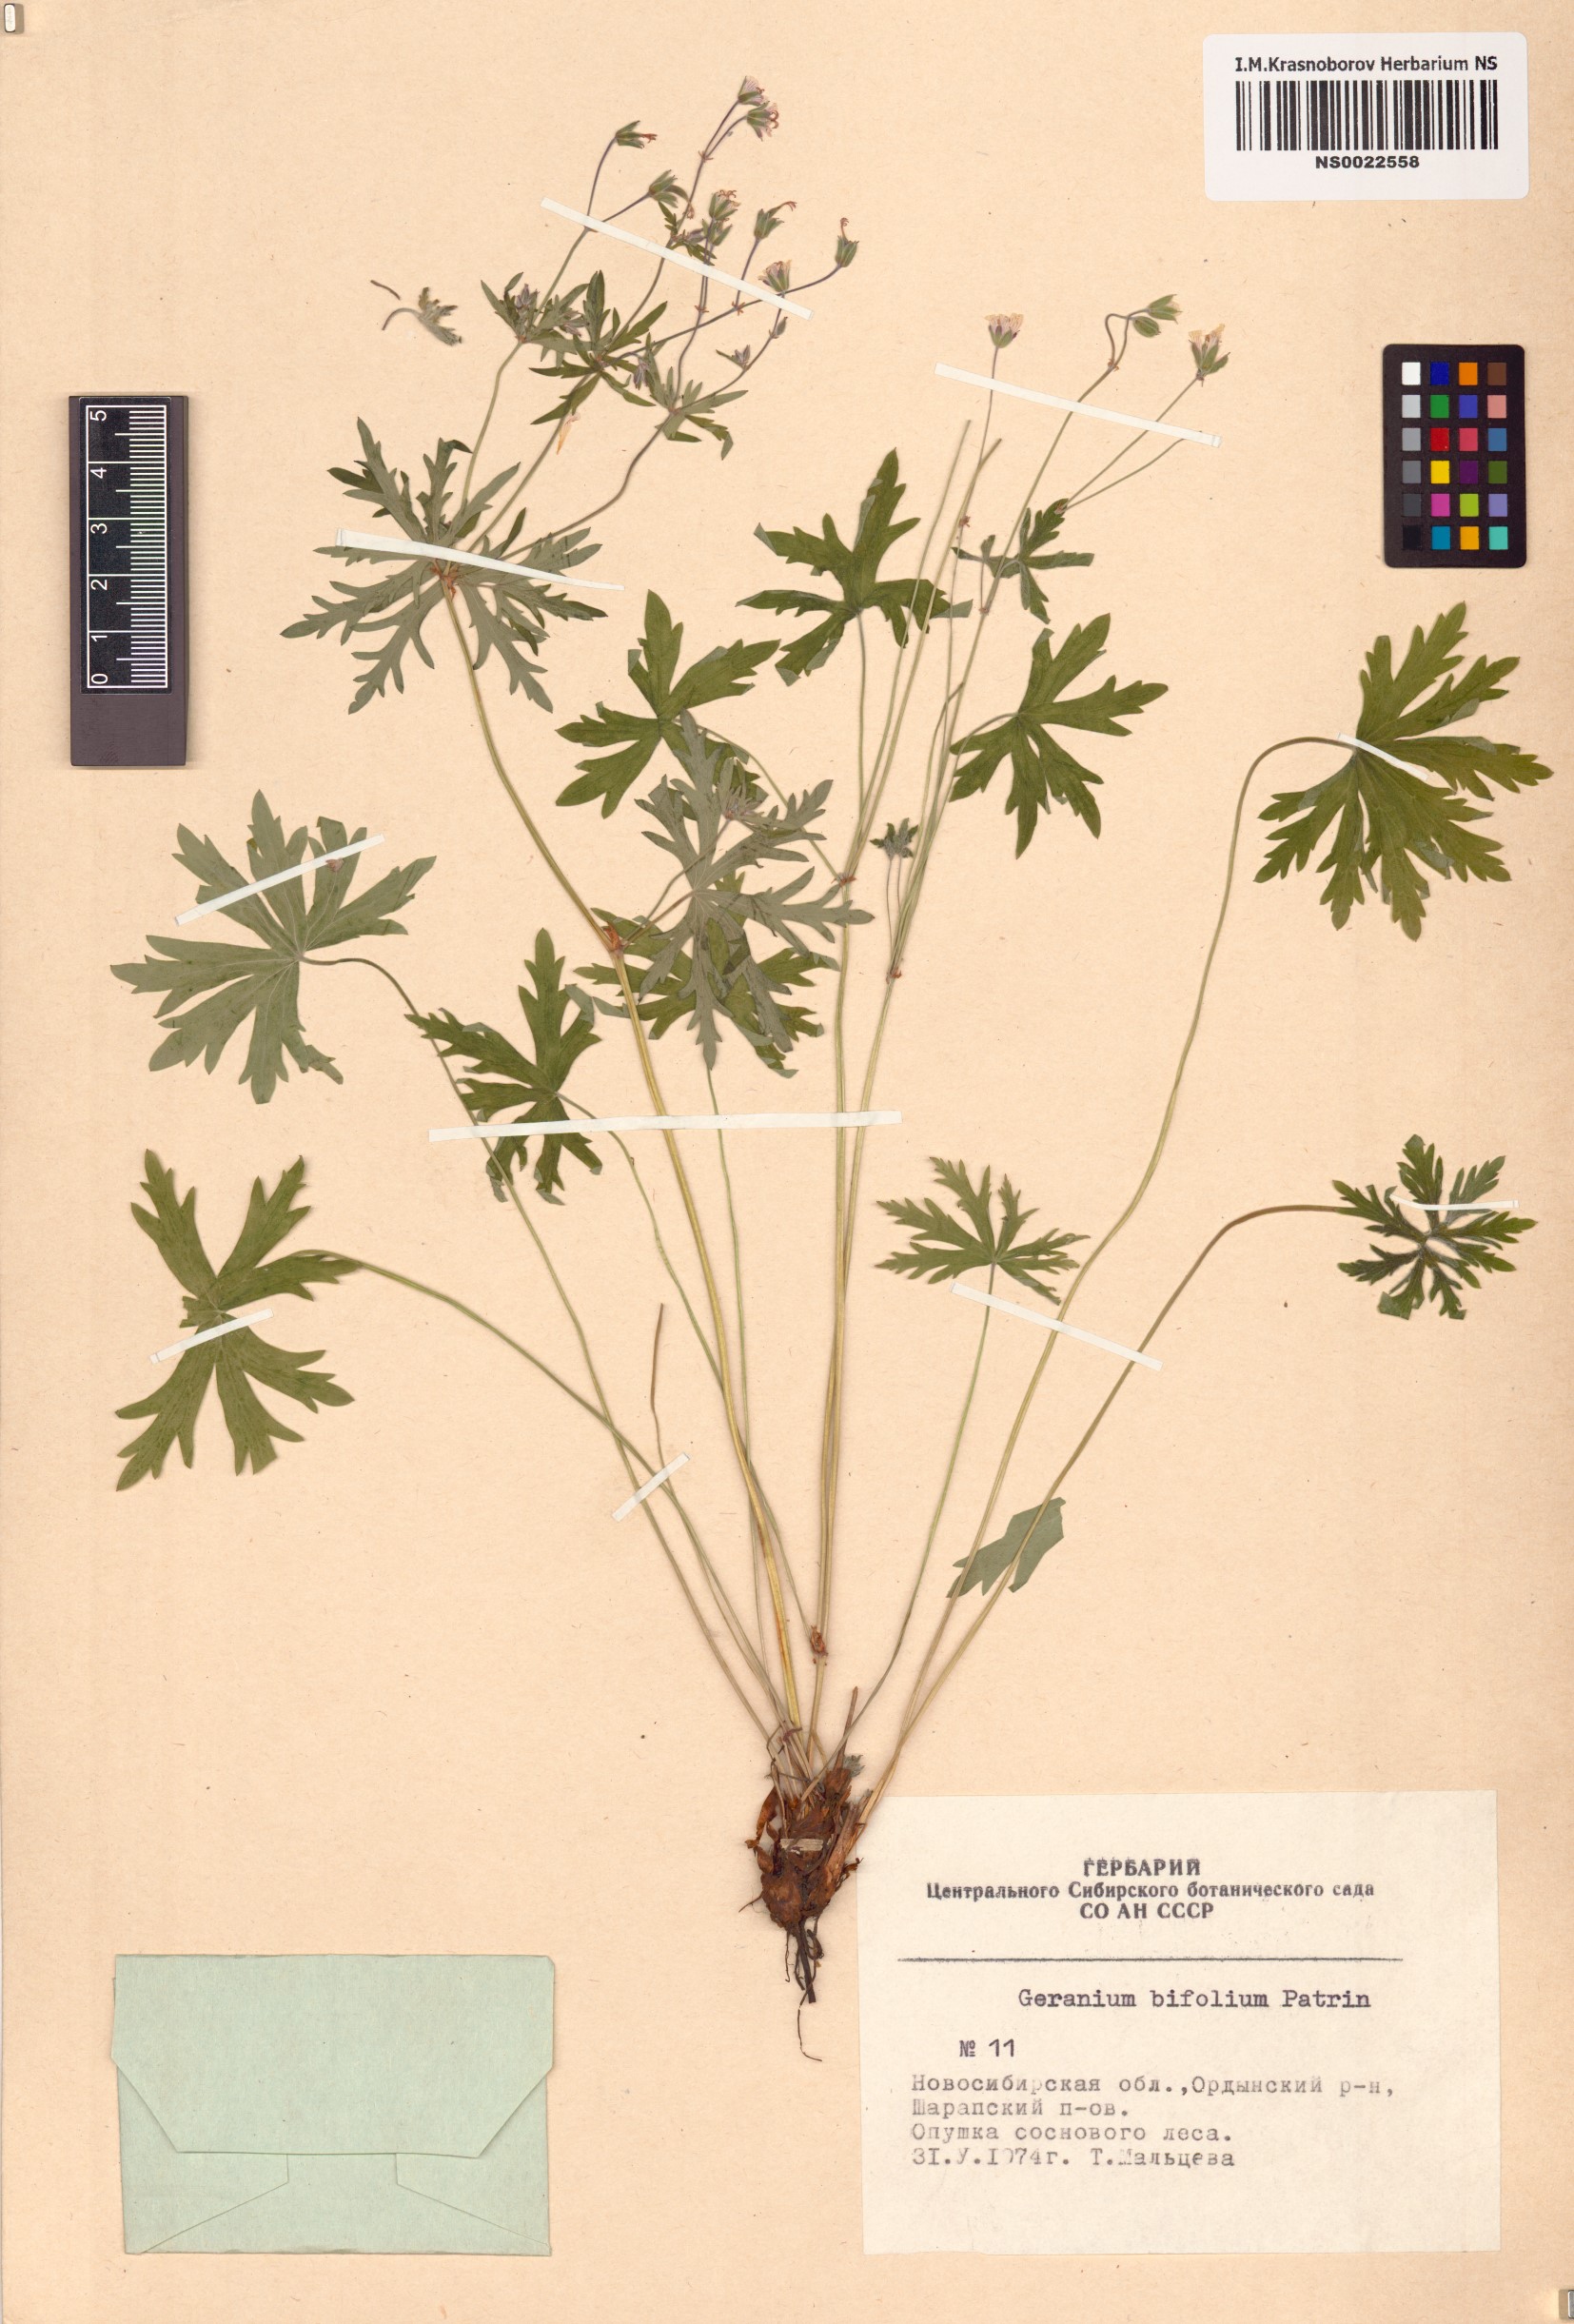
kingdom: Plantae
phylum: Tracheophyta
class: Magnoliopsida
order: Geraniales
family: Geraniaceae
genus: Geranium
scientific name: Geranium pseudosibiricum
